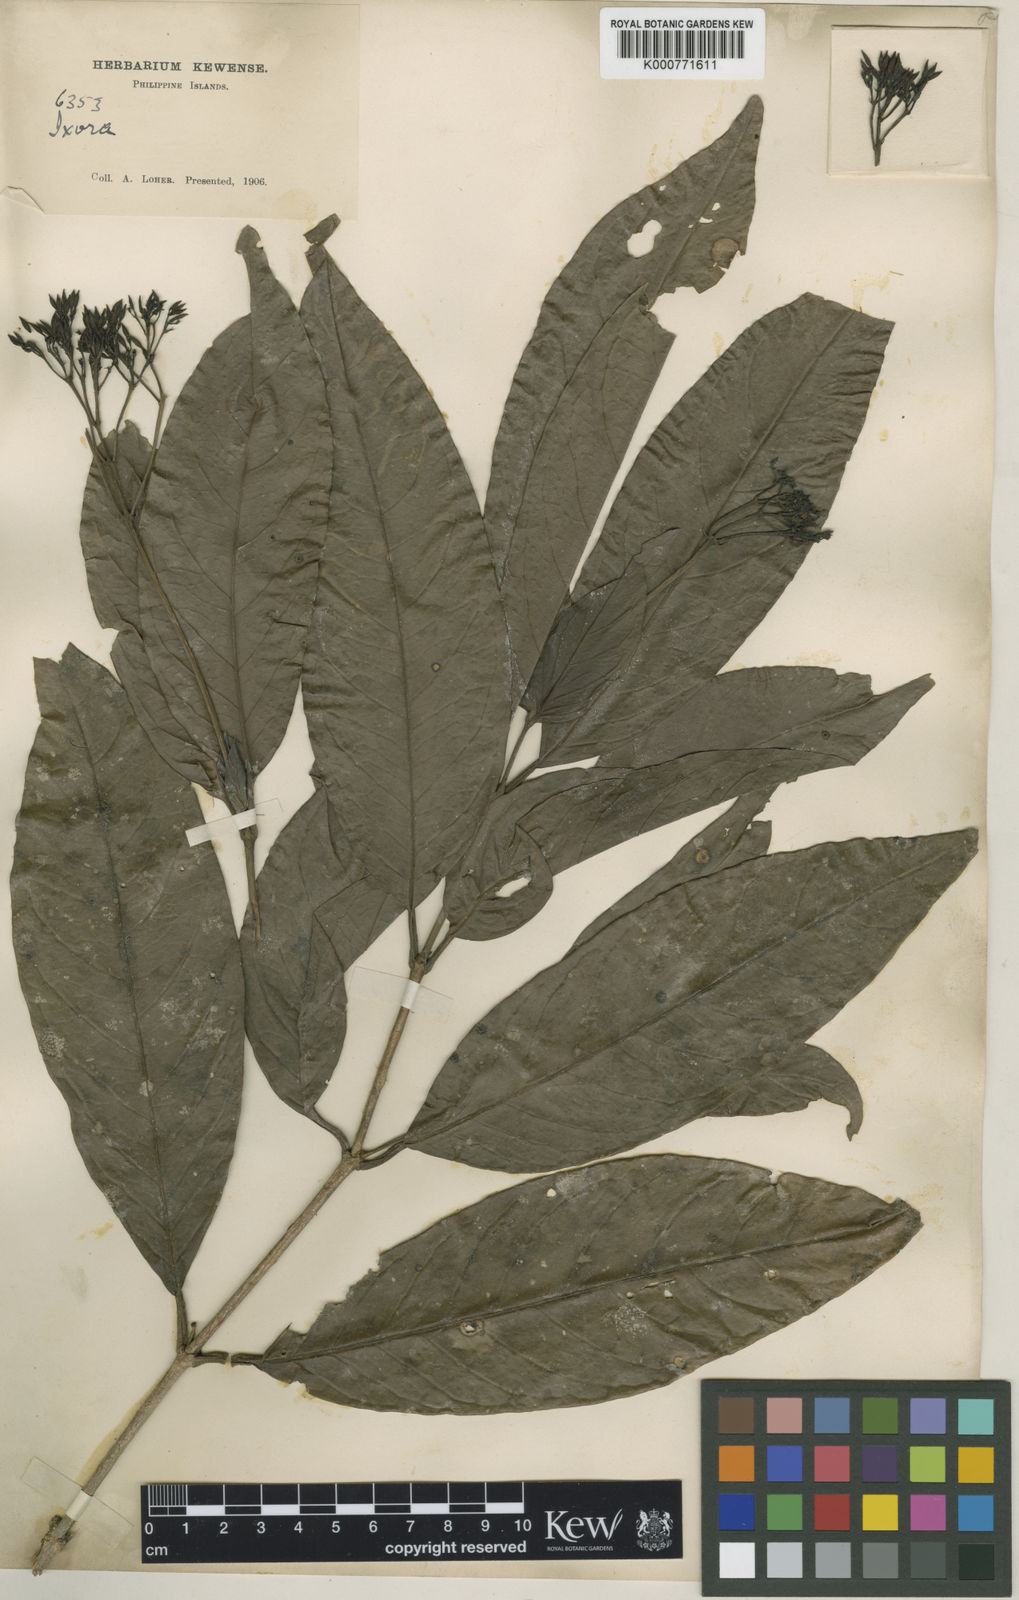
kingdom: Plantae
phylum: Tracheophyta
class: Magnoliopsida
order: Gentianales
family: Rubiaceae
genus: Ixora
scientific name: Ixora cumingiana
